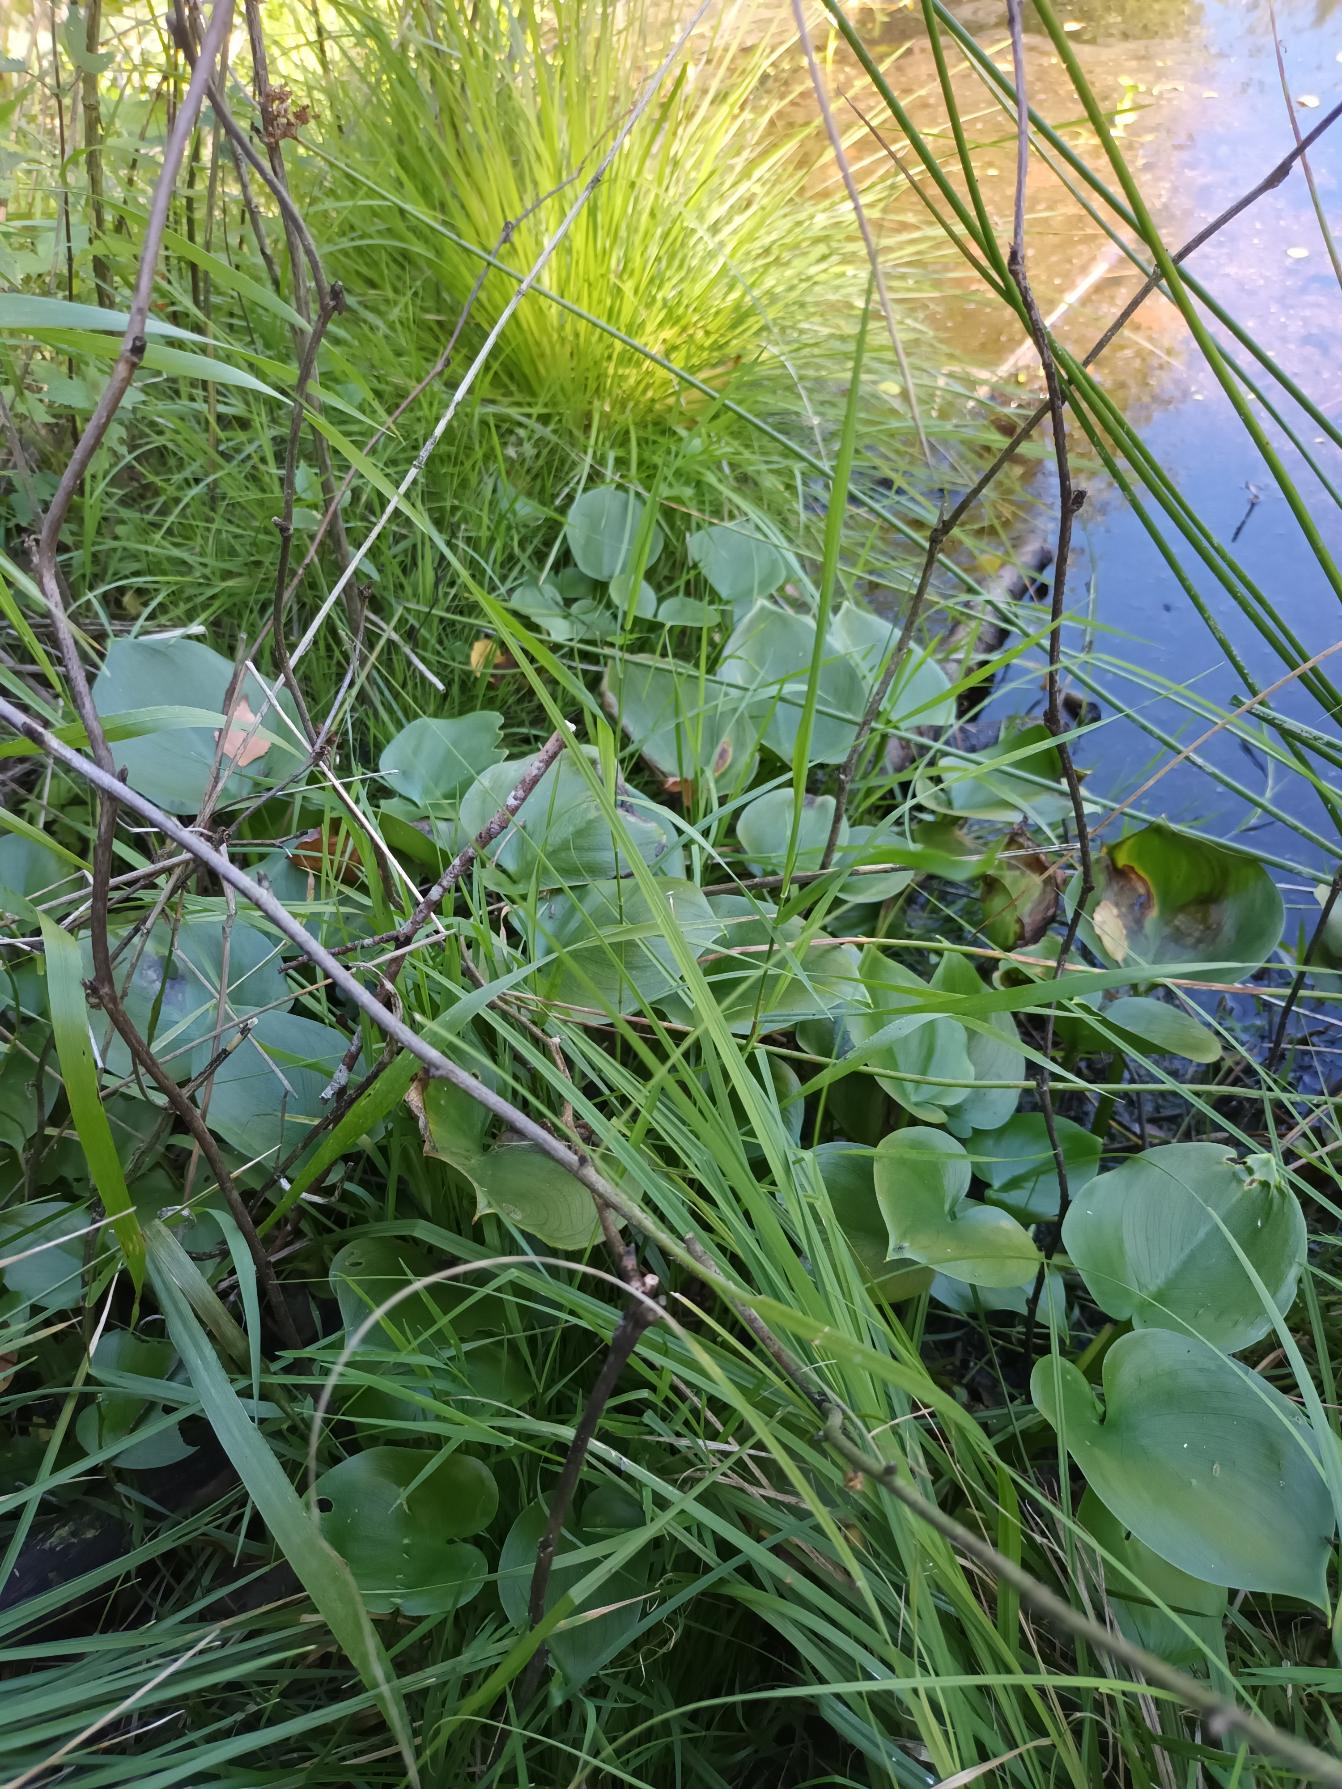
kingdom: Plantae
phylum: Tracheophyta
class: Liliopsida
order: Alismatales
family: Araceae
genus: Calla
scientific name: Calla palustris
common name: Kærmysse
